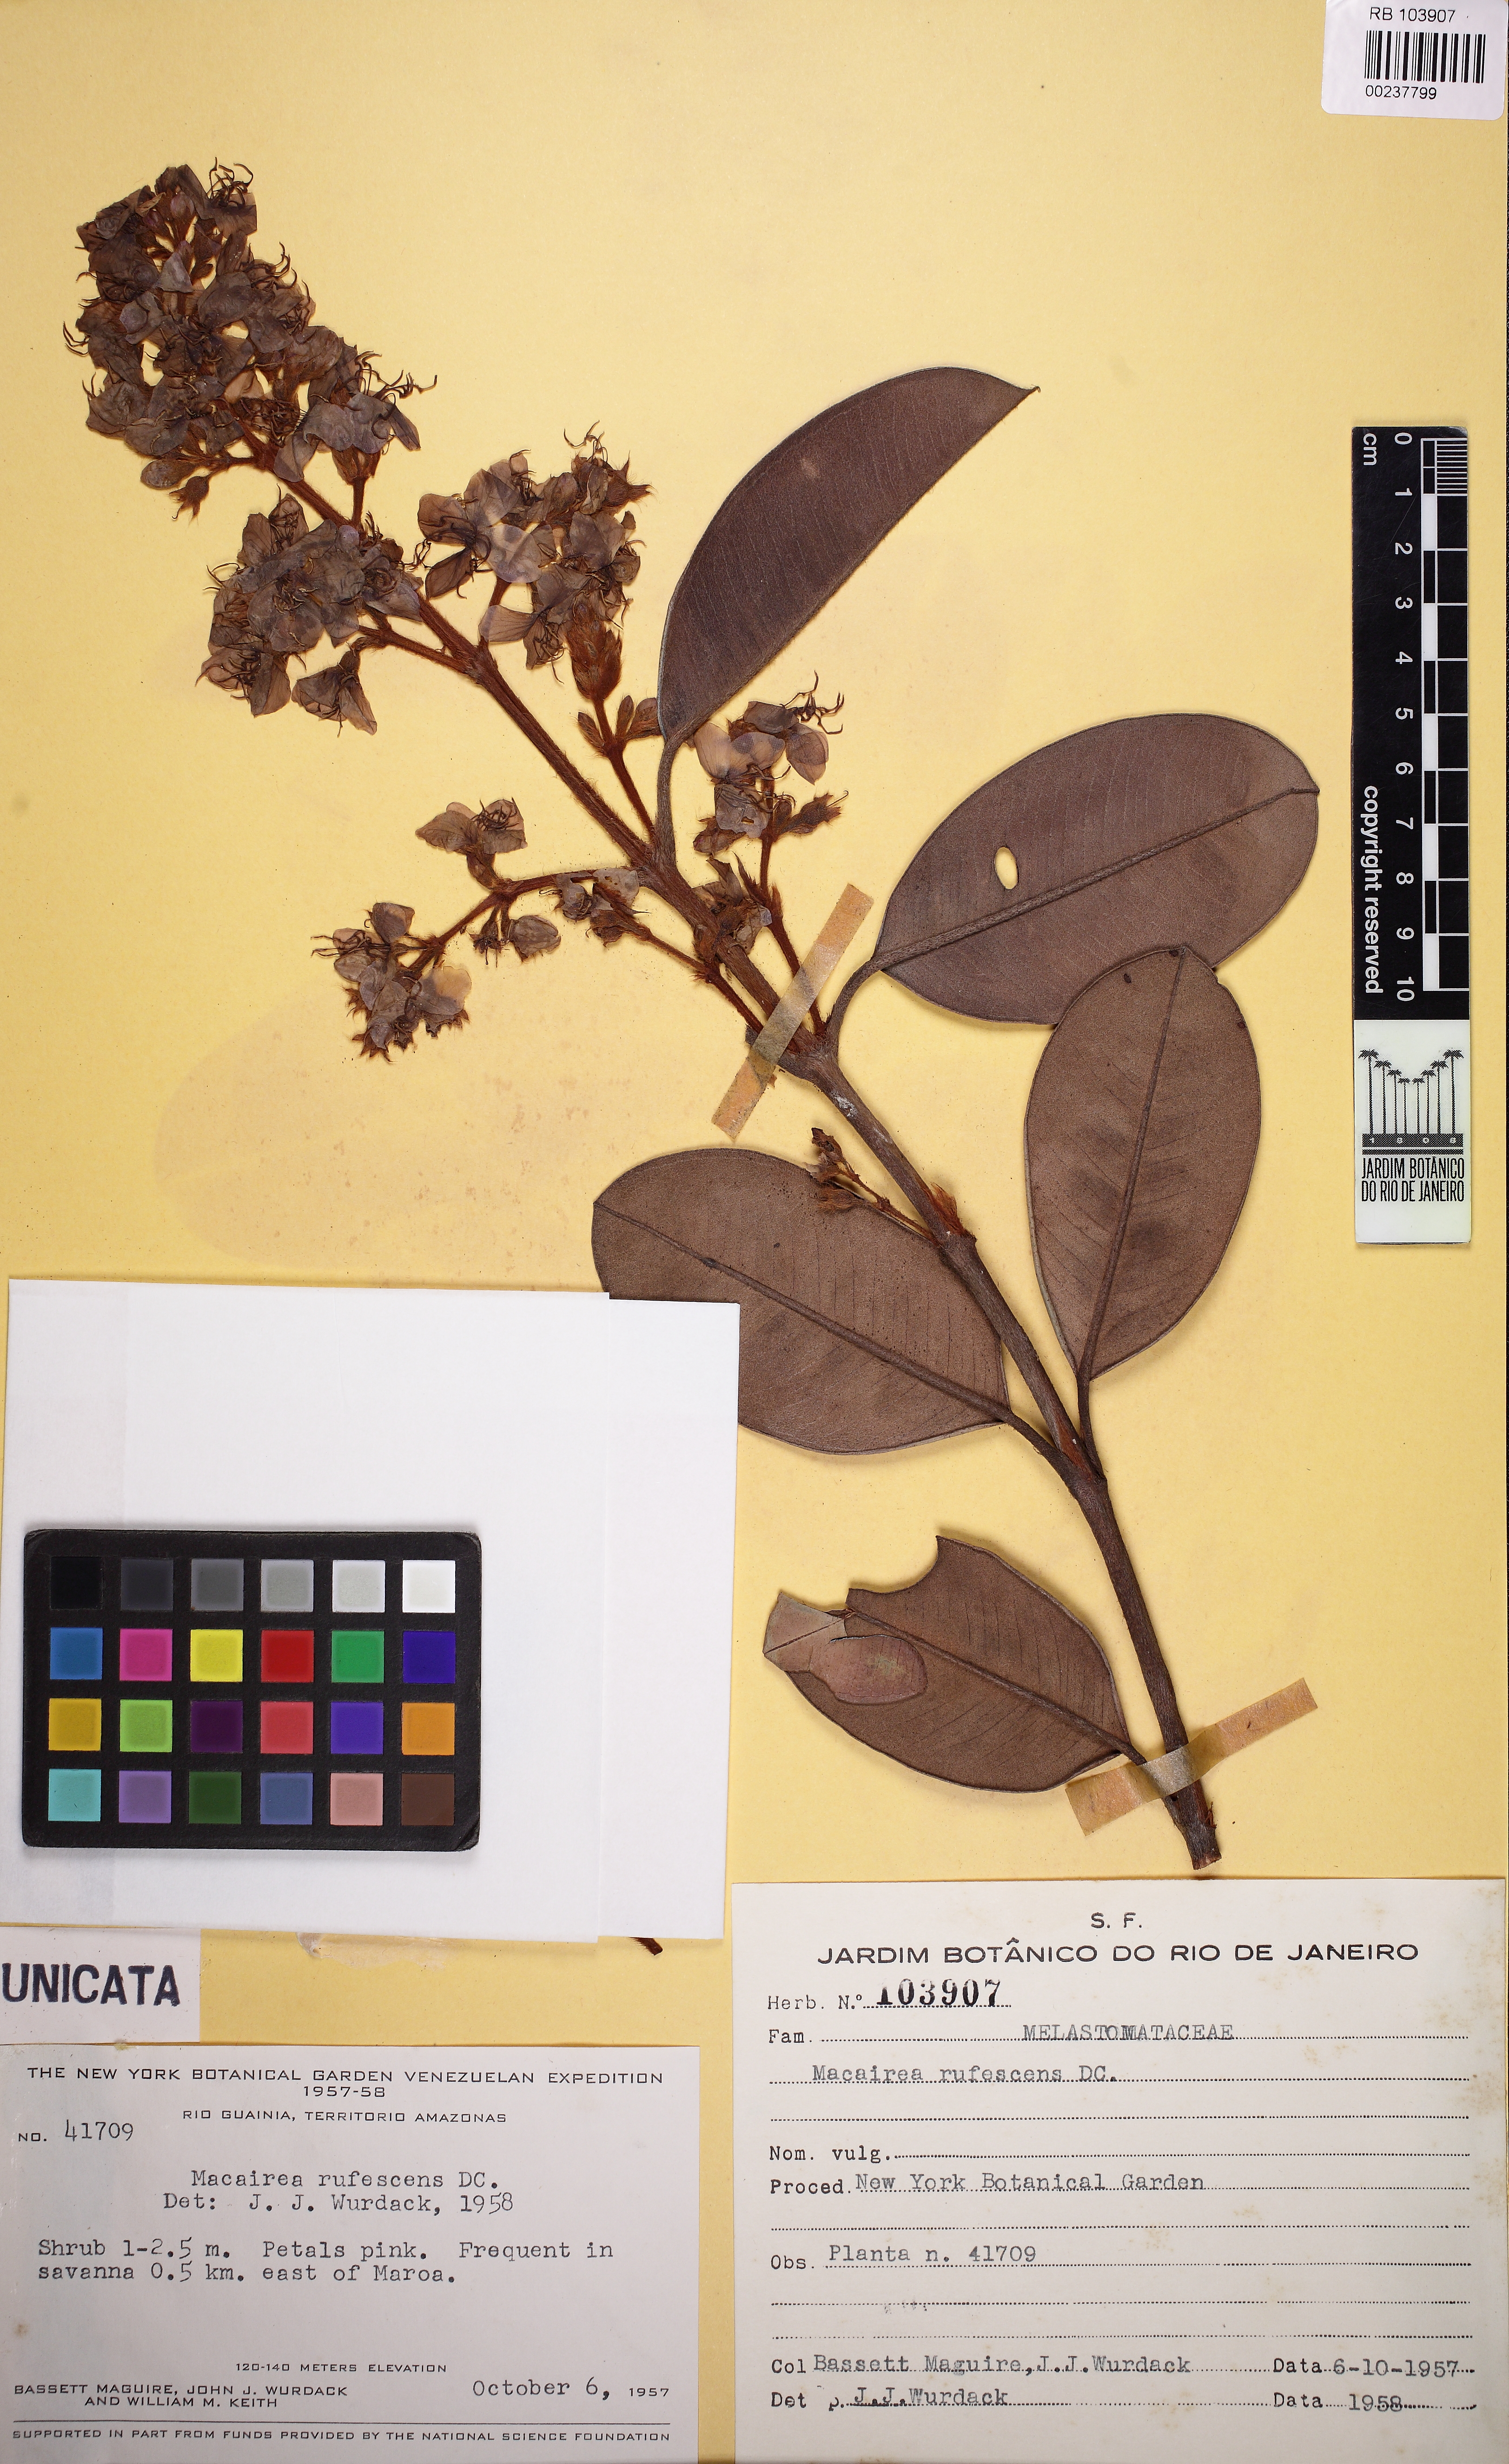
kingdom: Plantae
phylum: Tracheophyta
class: Magnoliopsida
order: Myrtales
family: Melastomataceae
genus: Macairea
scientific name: Macairea rufescens
